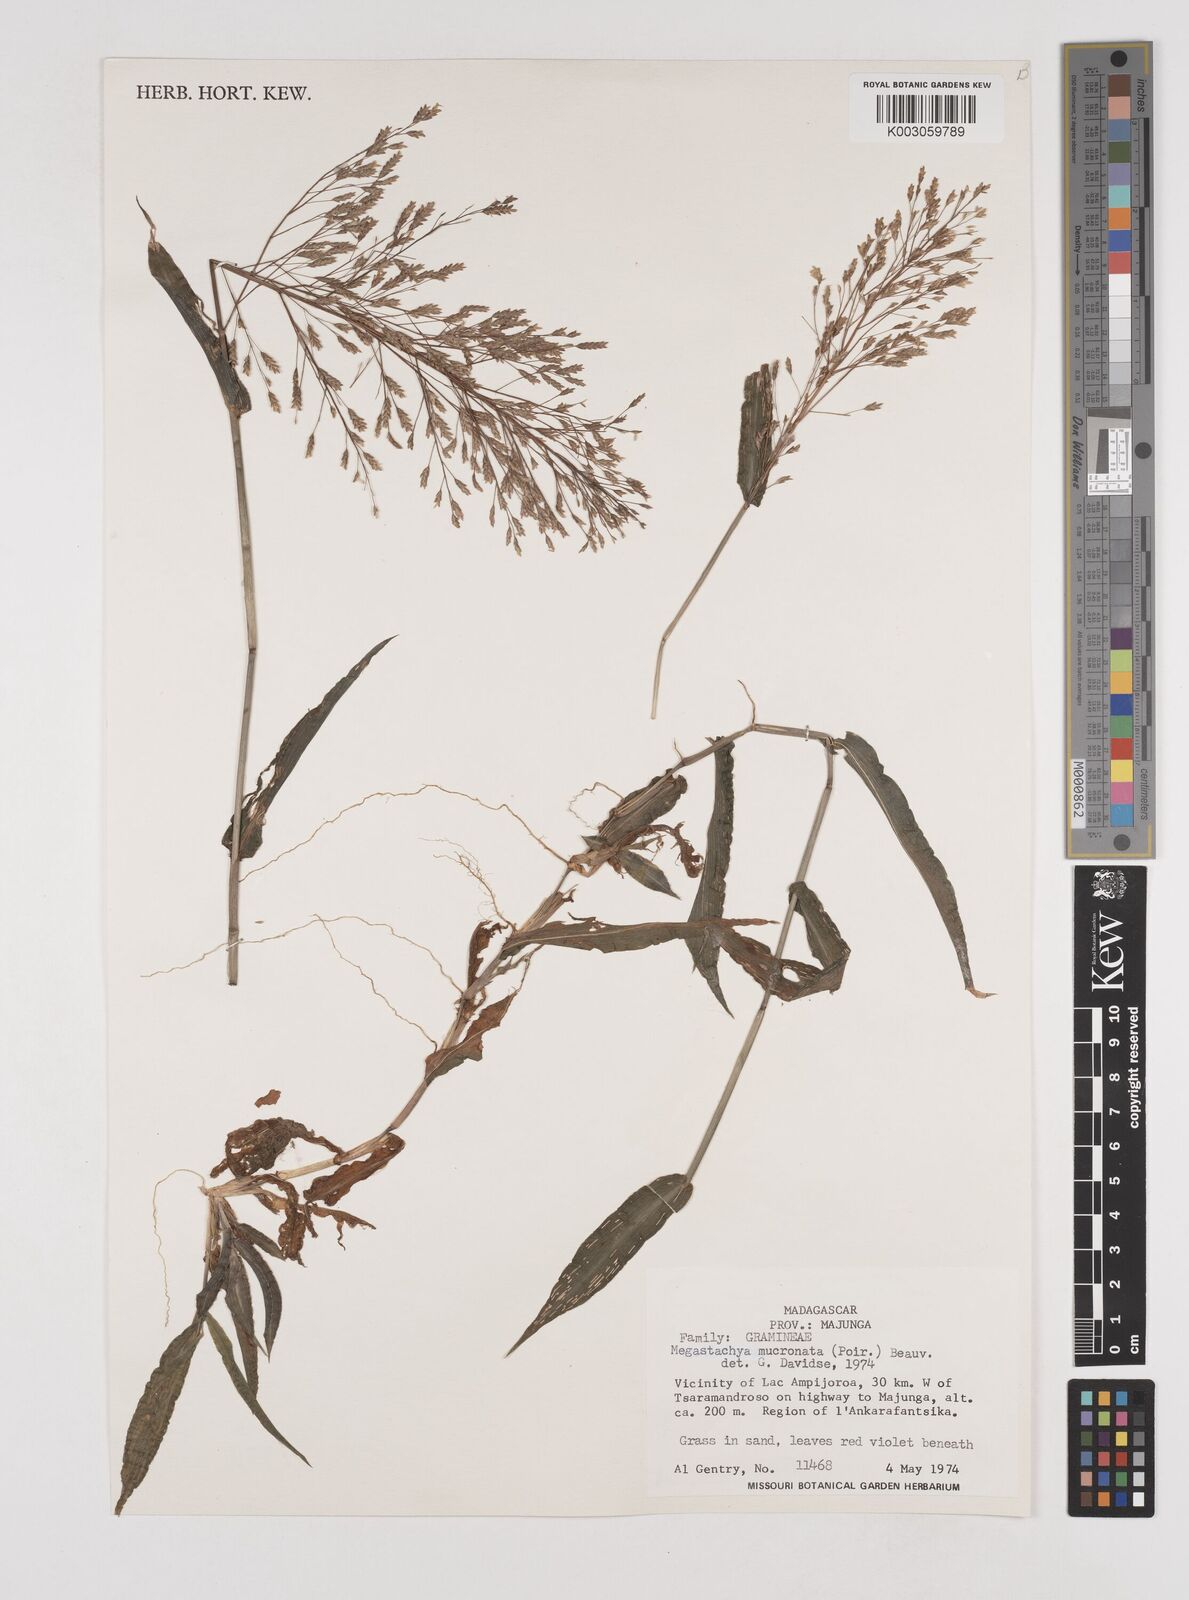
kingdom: Plantae
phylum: Tracheophyta
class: Liliopsida
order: Poales
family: Poaceae
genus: Megastachya
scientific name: Megastachya mucronata
